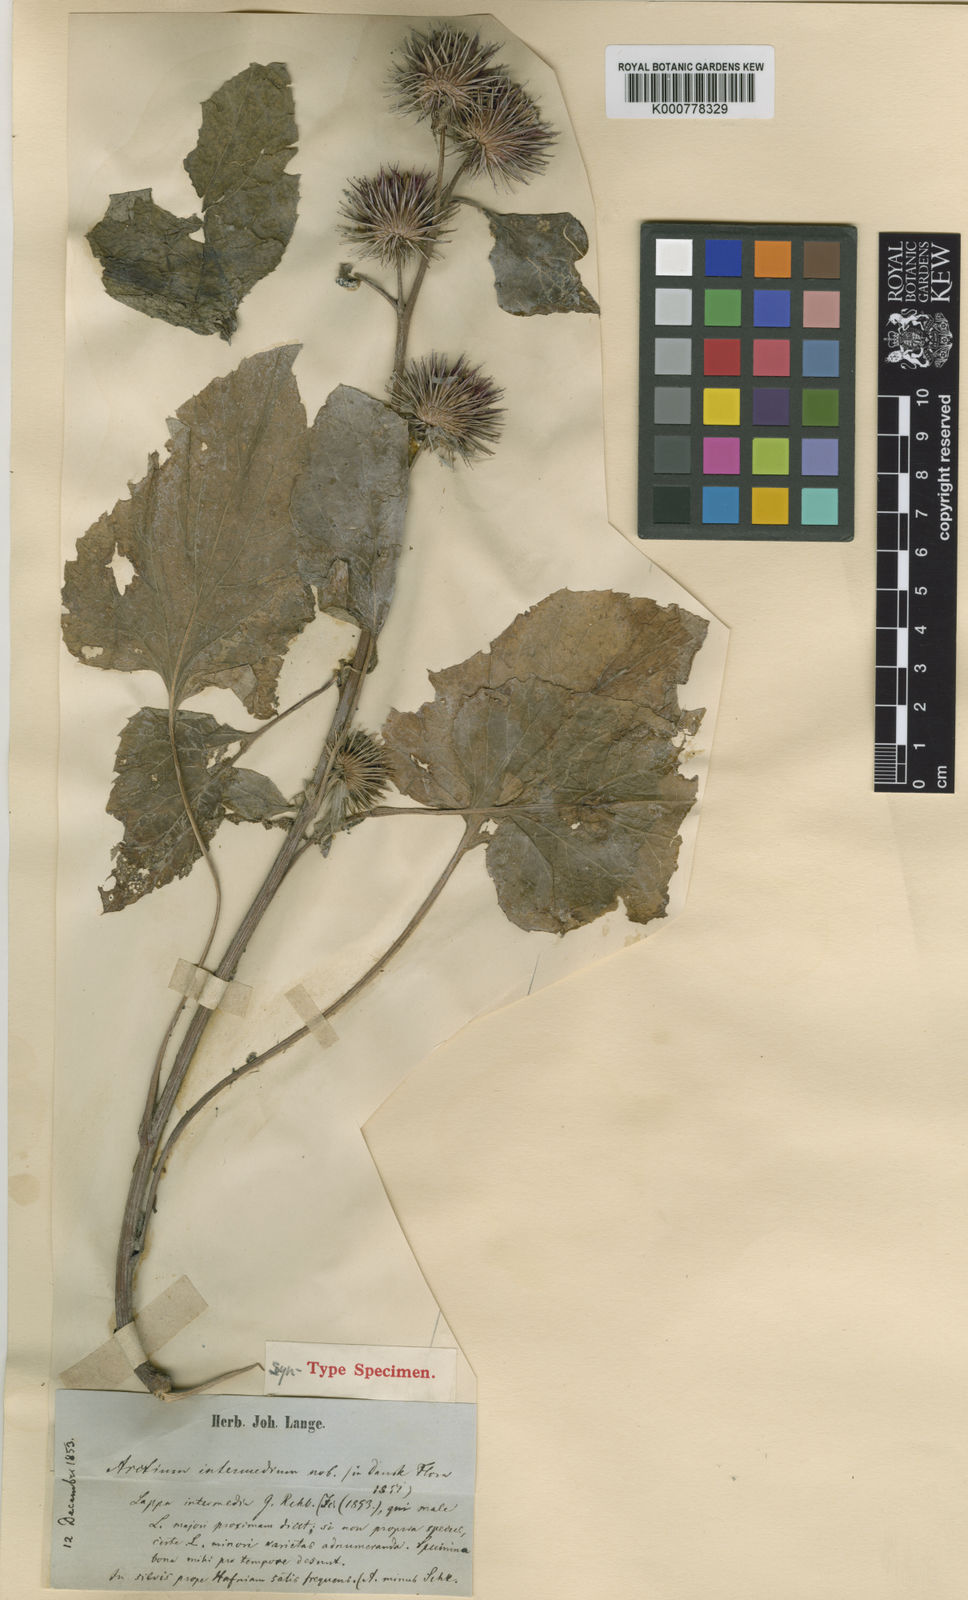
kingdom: Plantae
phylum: Tracheophyta
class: Magnoliopsida
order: Asterales
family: Asteraceae
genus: Arctium
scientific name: Arctium nemorosum
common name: Wood burdock
